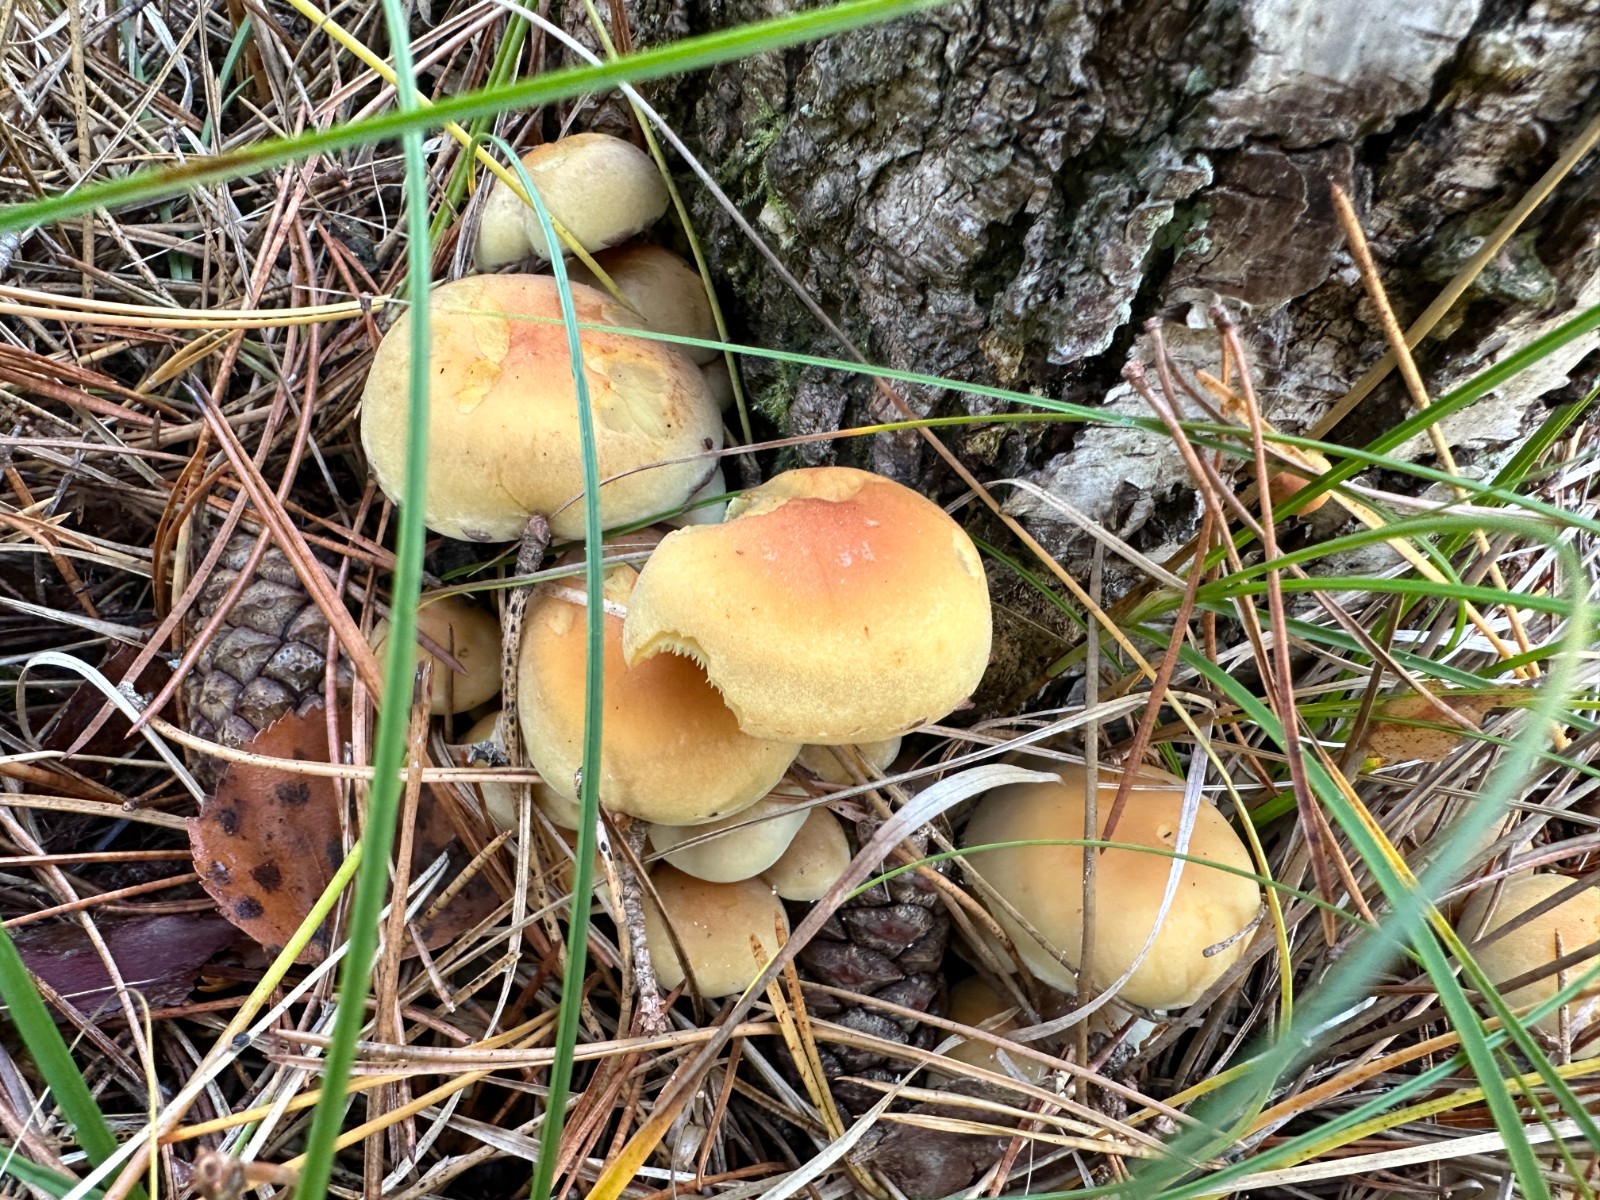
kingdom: Fungi
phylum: Basidiomycota
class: Agaricomycetes
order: Agaricales
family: Strophariaceae
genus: Hypholoma
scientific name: Hypholoma fasciculare
